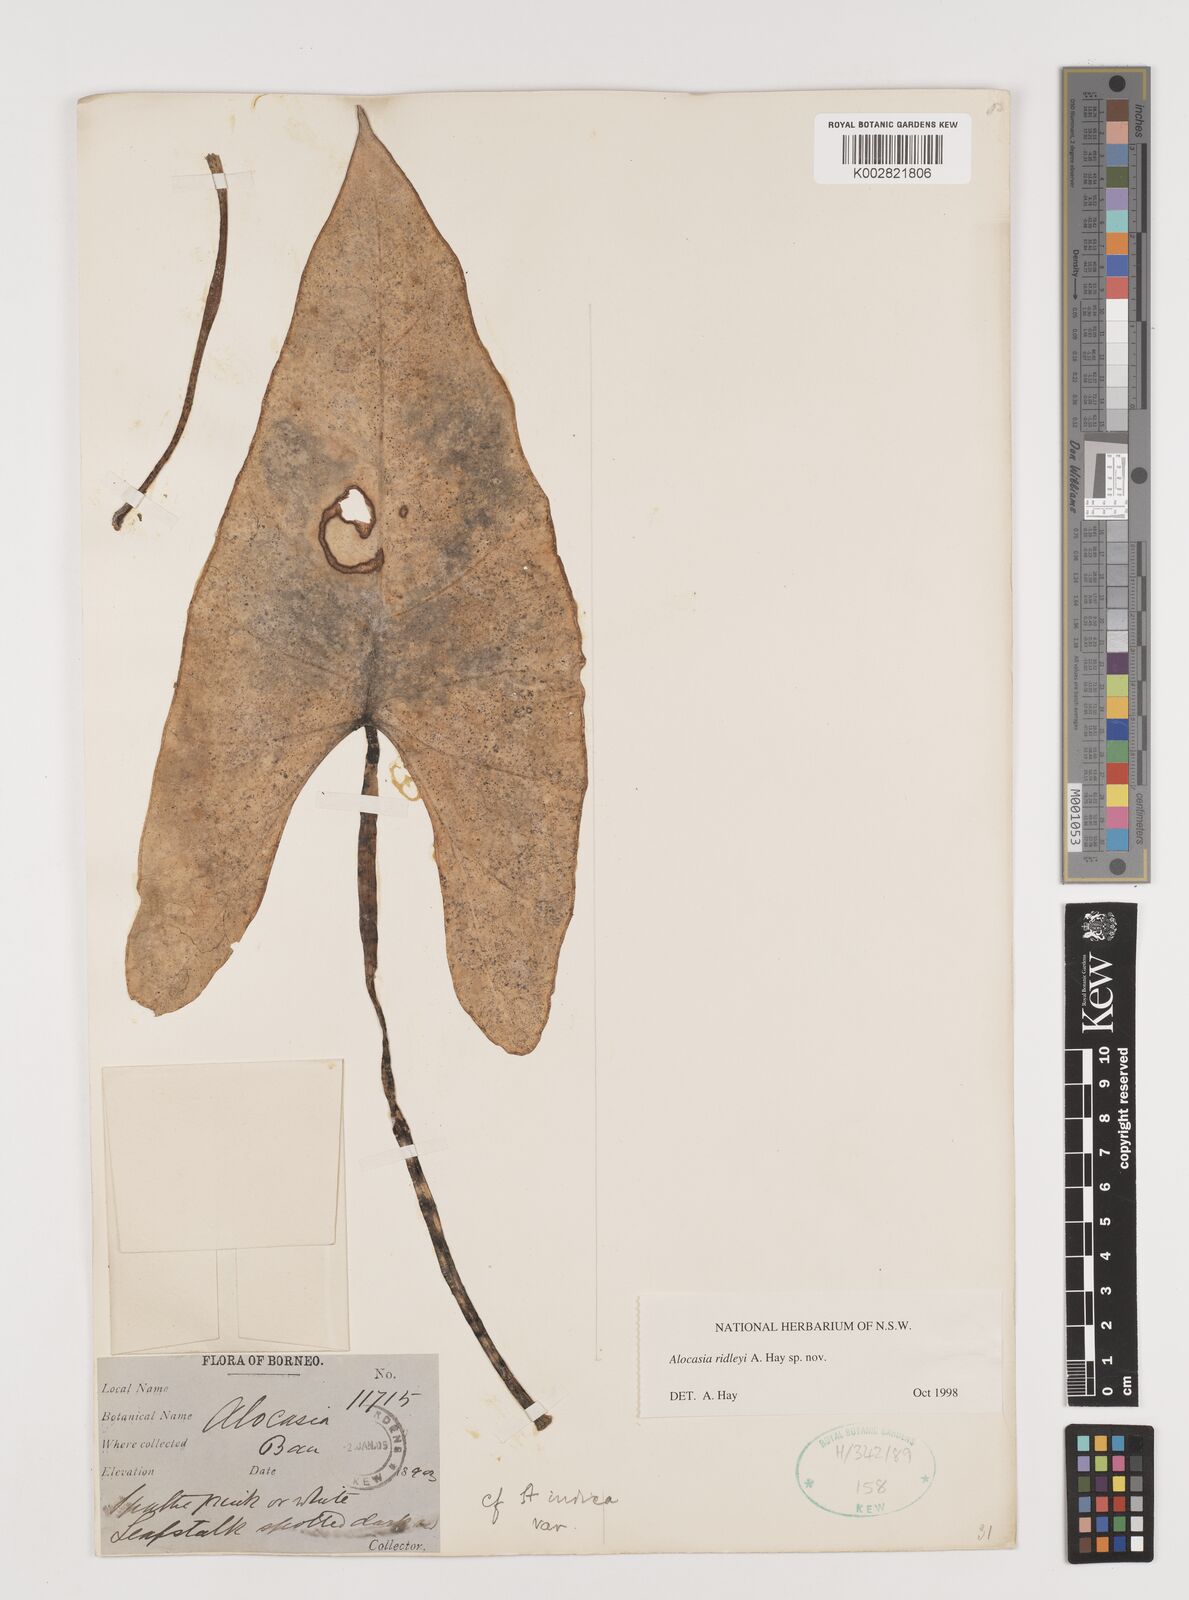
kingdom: Plantae
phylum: Tracheophyta
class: Liliopsida
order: Alismatales
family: Araceae
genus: Alocasia
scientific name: Alocasia ridleyi
